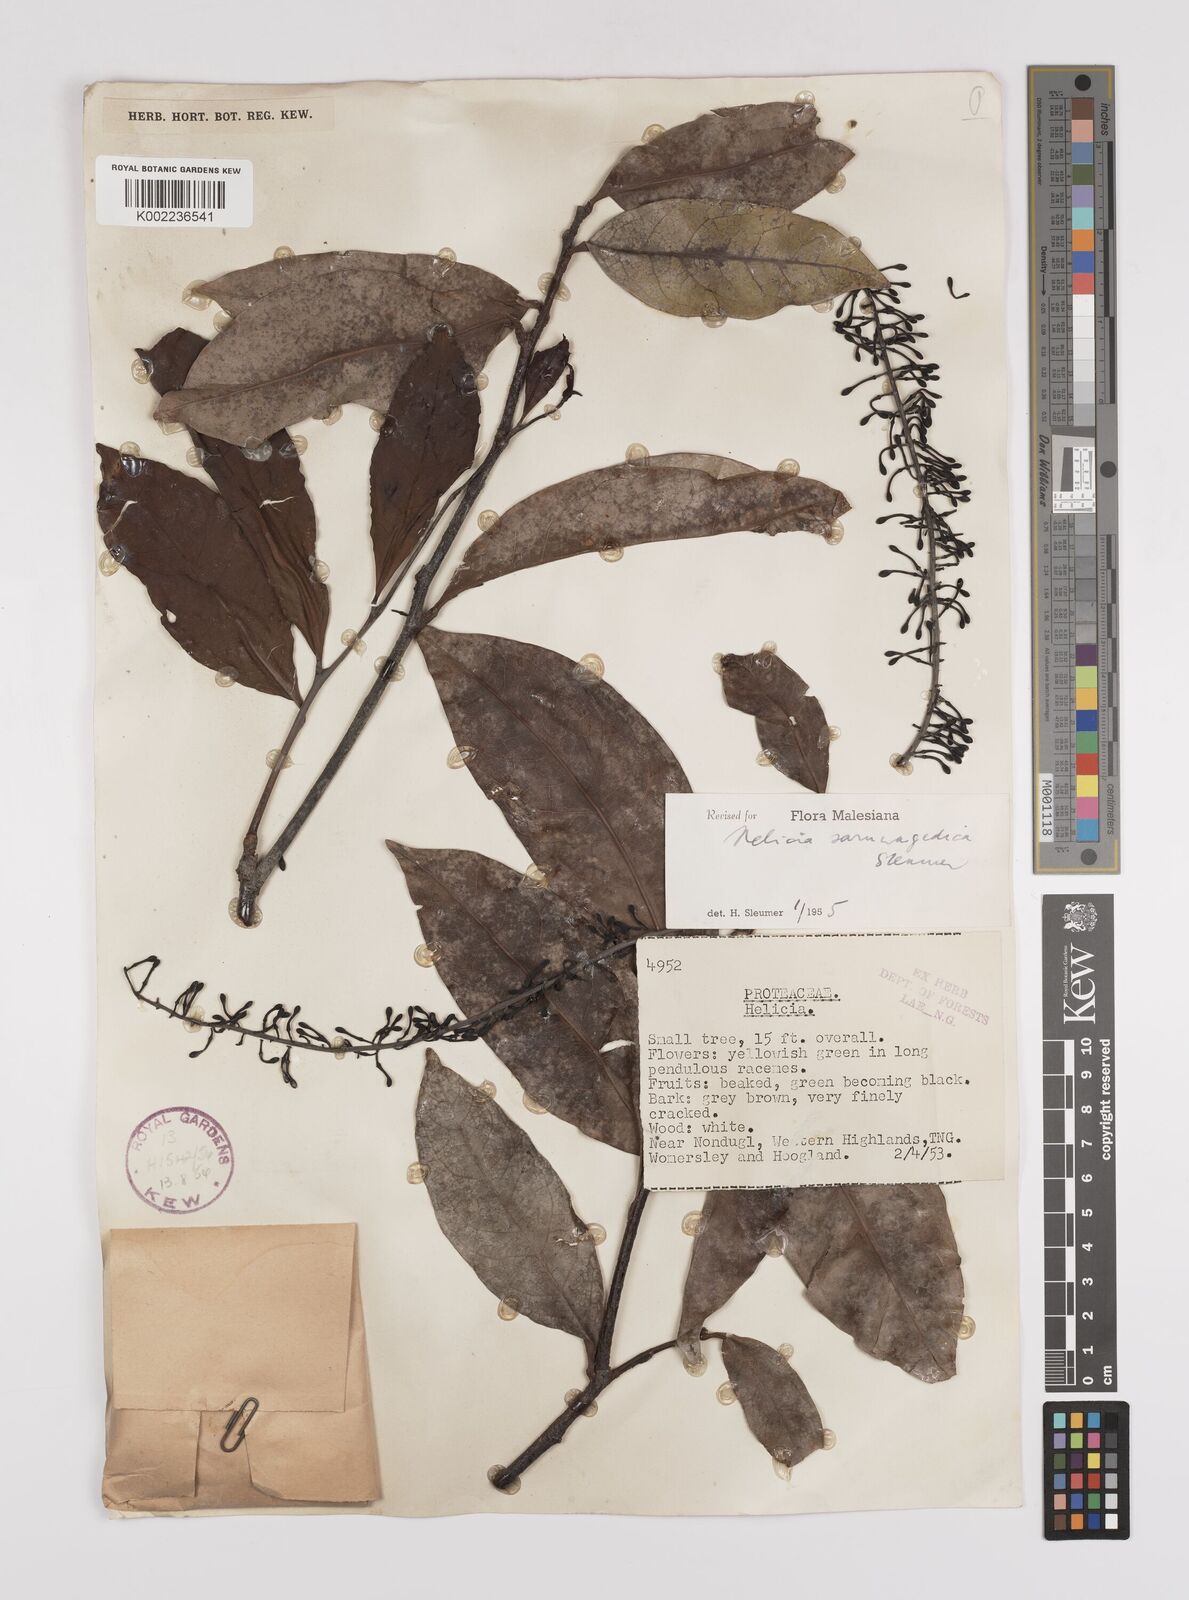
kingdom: Plantae
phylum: Tracheophyta
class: Magnoliopsida
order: Proteales
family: Proteaceae
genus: Helicia
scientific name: Helicia saruwagedica
